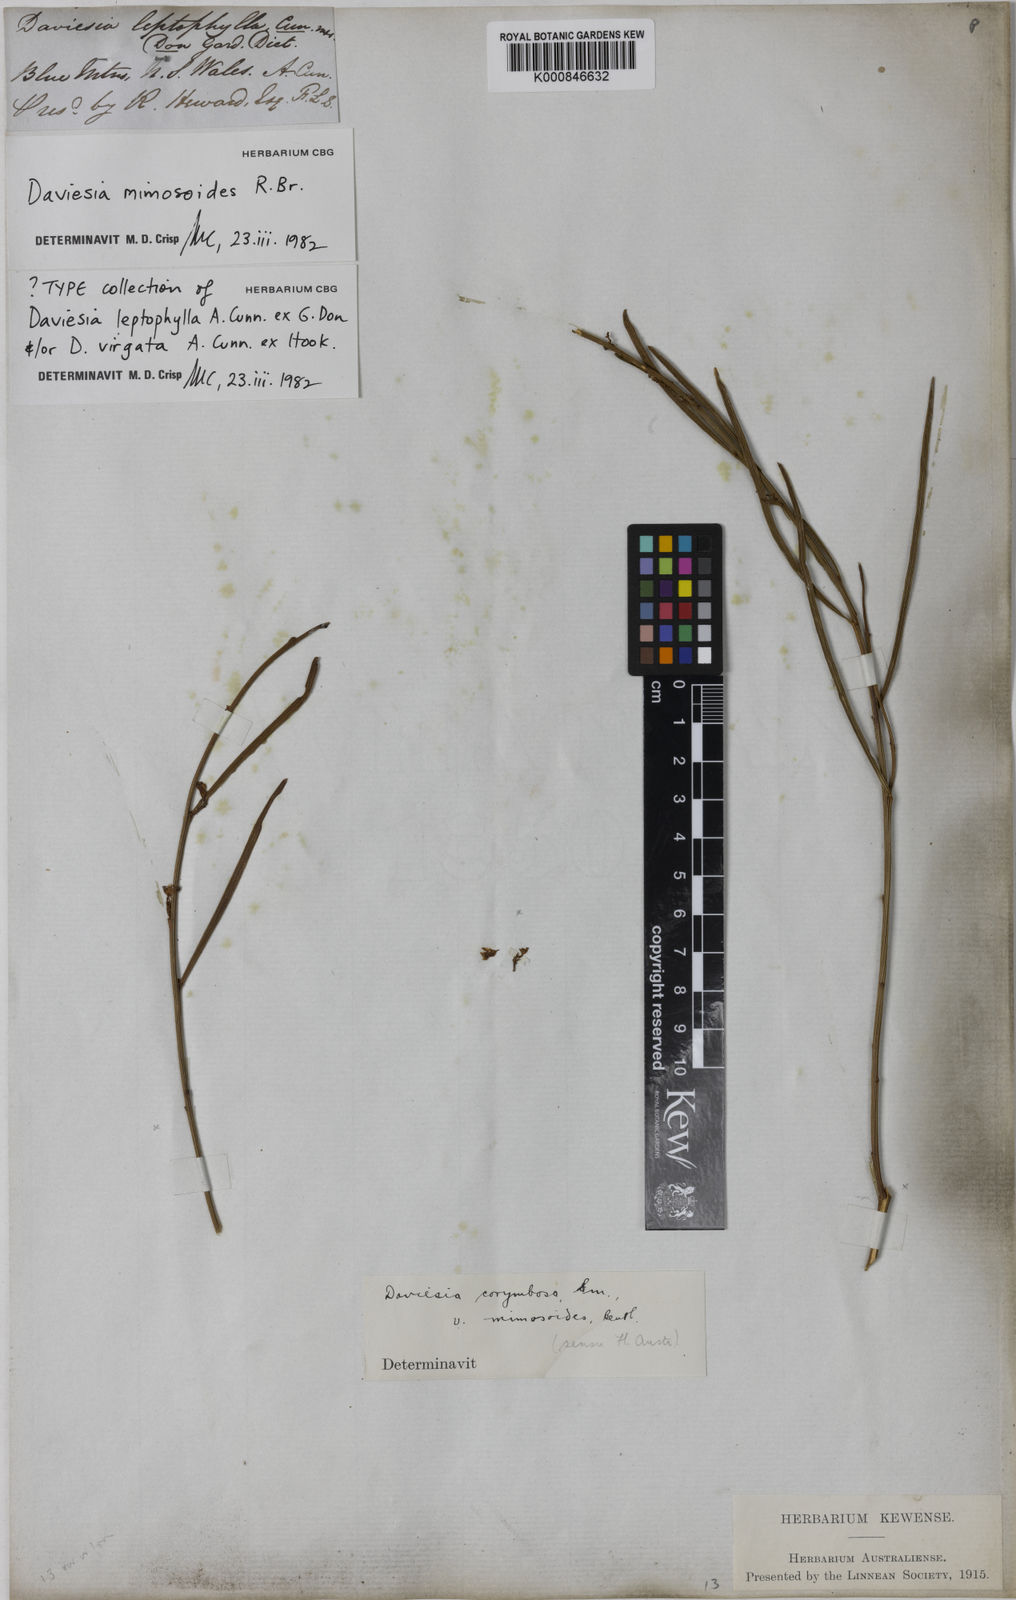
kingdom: Plantae
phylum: Tracheophyta
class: Magnoliopsida
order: Fabales
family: Fabaceae
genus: Daviesia
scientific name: Daviesia mimosoides
